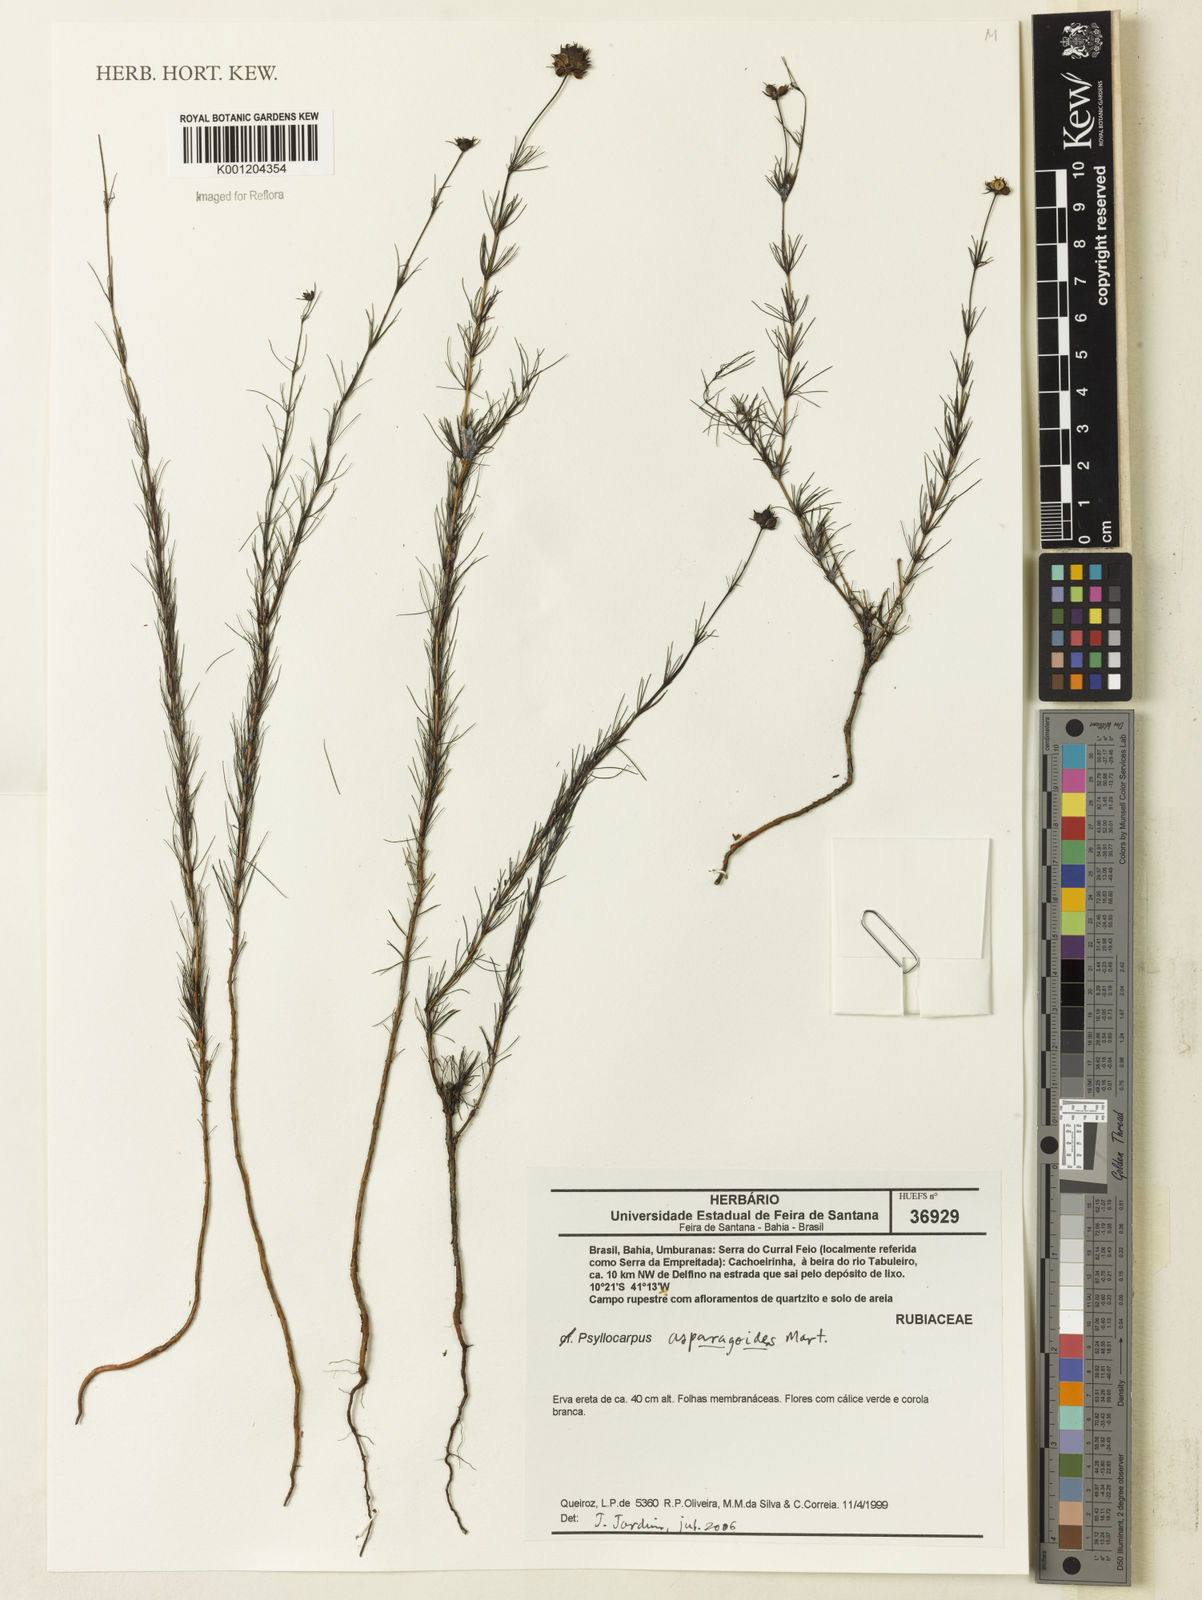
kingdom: Plantae
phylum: Tracheophyta
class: Magnoliopsida
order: Gentianales
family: Rubiaceae
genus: Psyllocarpus
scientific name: Psyllocarpus asparagoides
